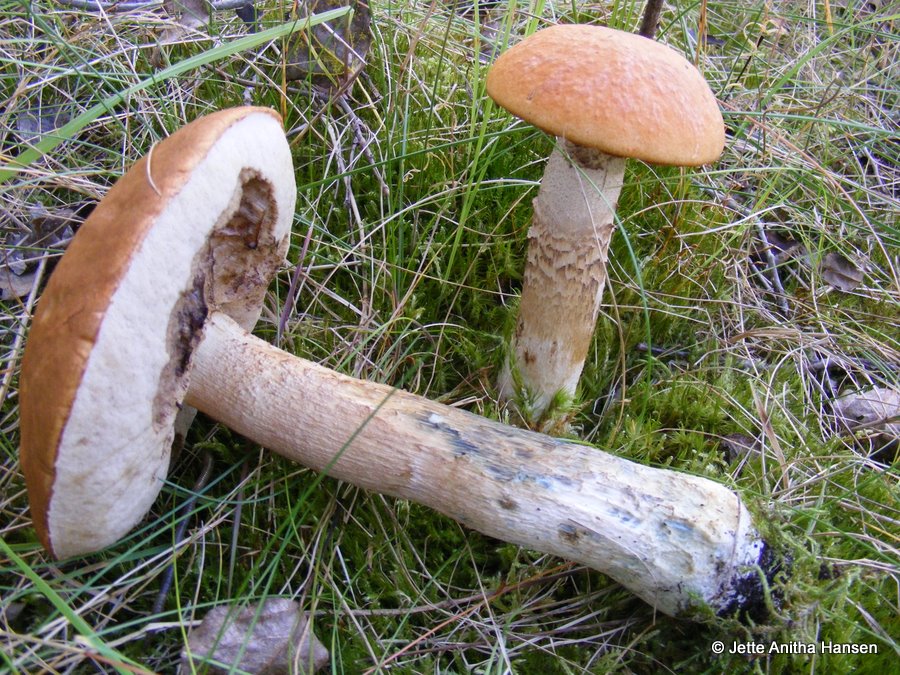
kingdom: Fungi
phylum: Basidiomycota
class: Agaricomycetes
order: Boletales
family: Boletaceae
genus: Leccinum
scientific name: Leccinum albostipitatum
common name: aspe-skælrørhat
